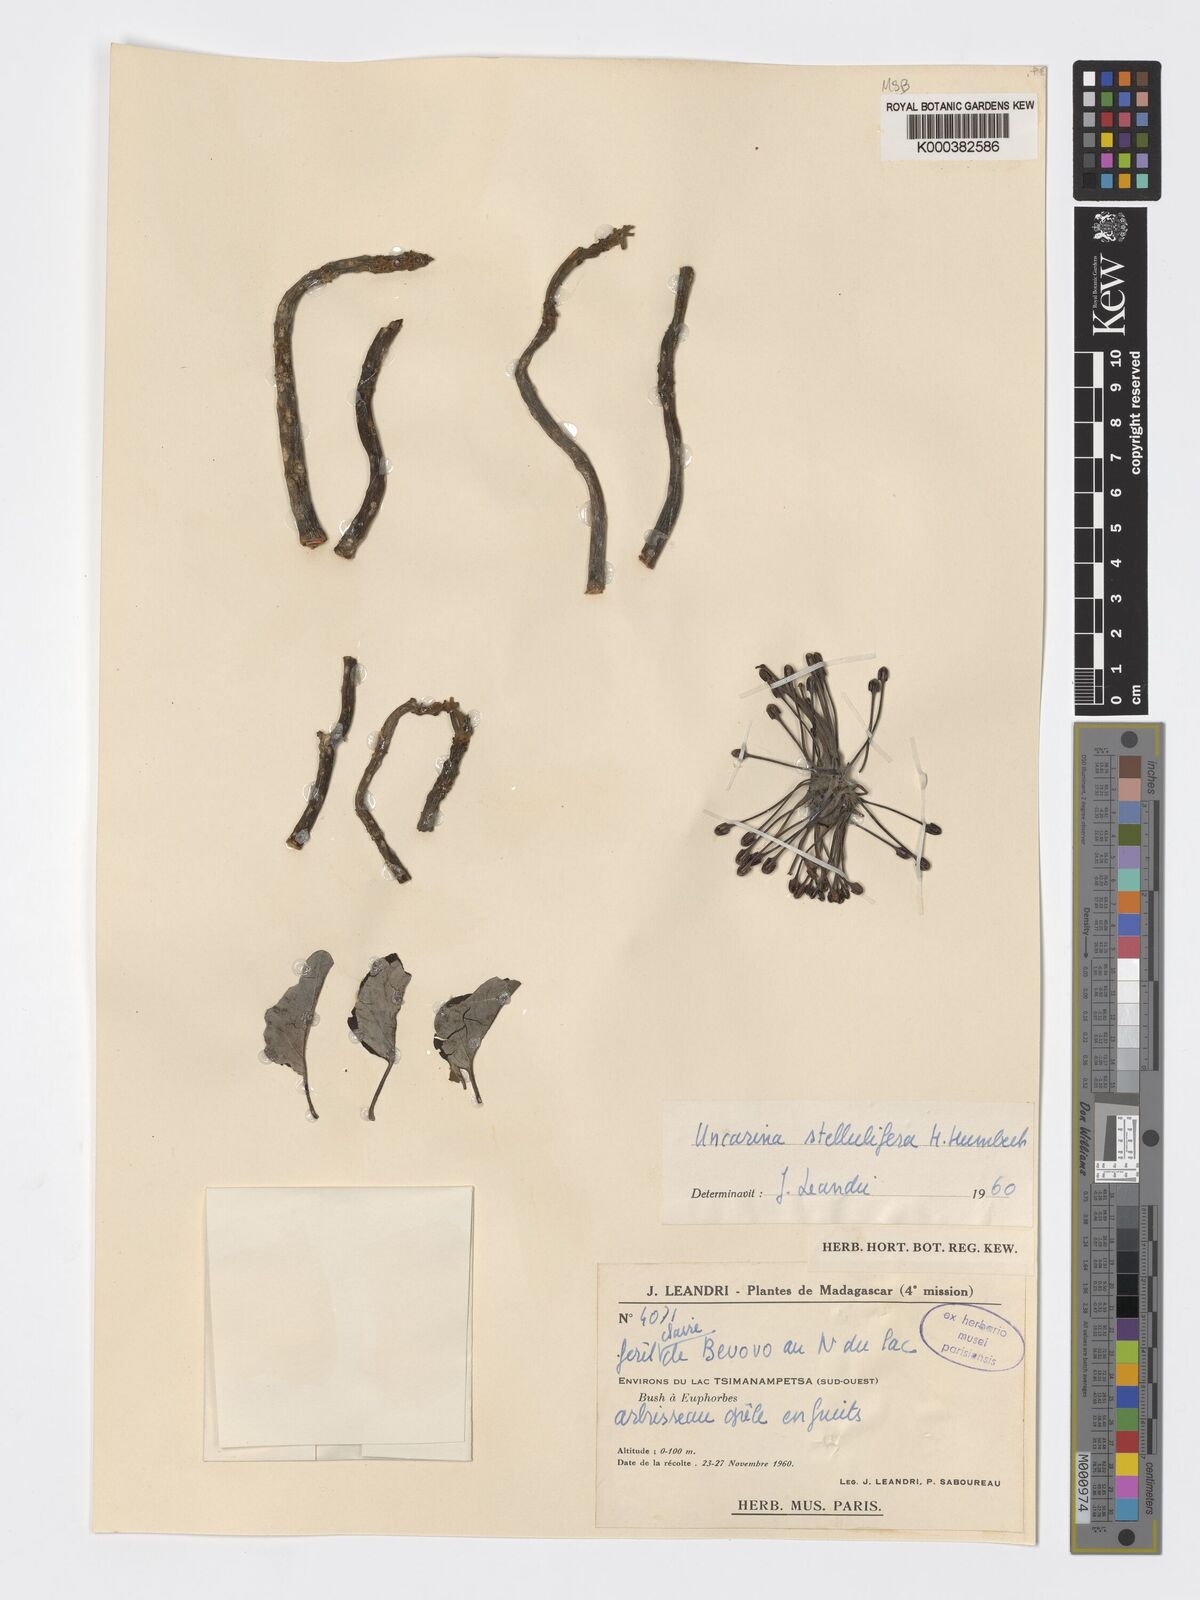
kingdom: Plantae
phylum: Tracheophyta
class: Magnoliopsida
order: Lamiales
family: Pedaliaceae
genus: Uncarina
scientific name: Uncarina stellulifera
